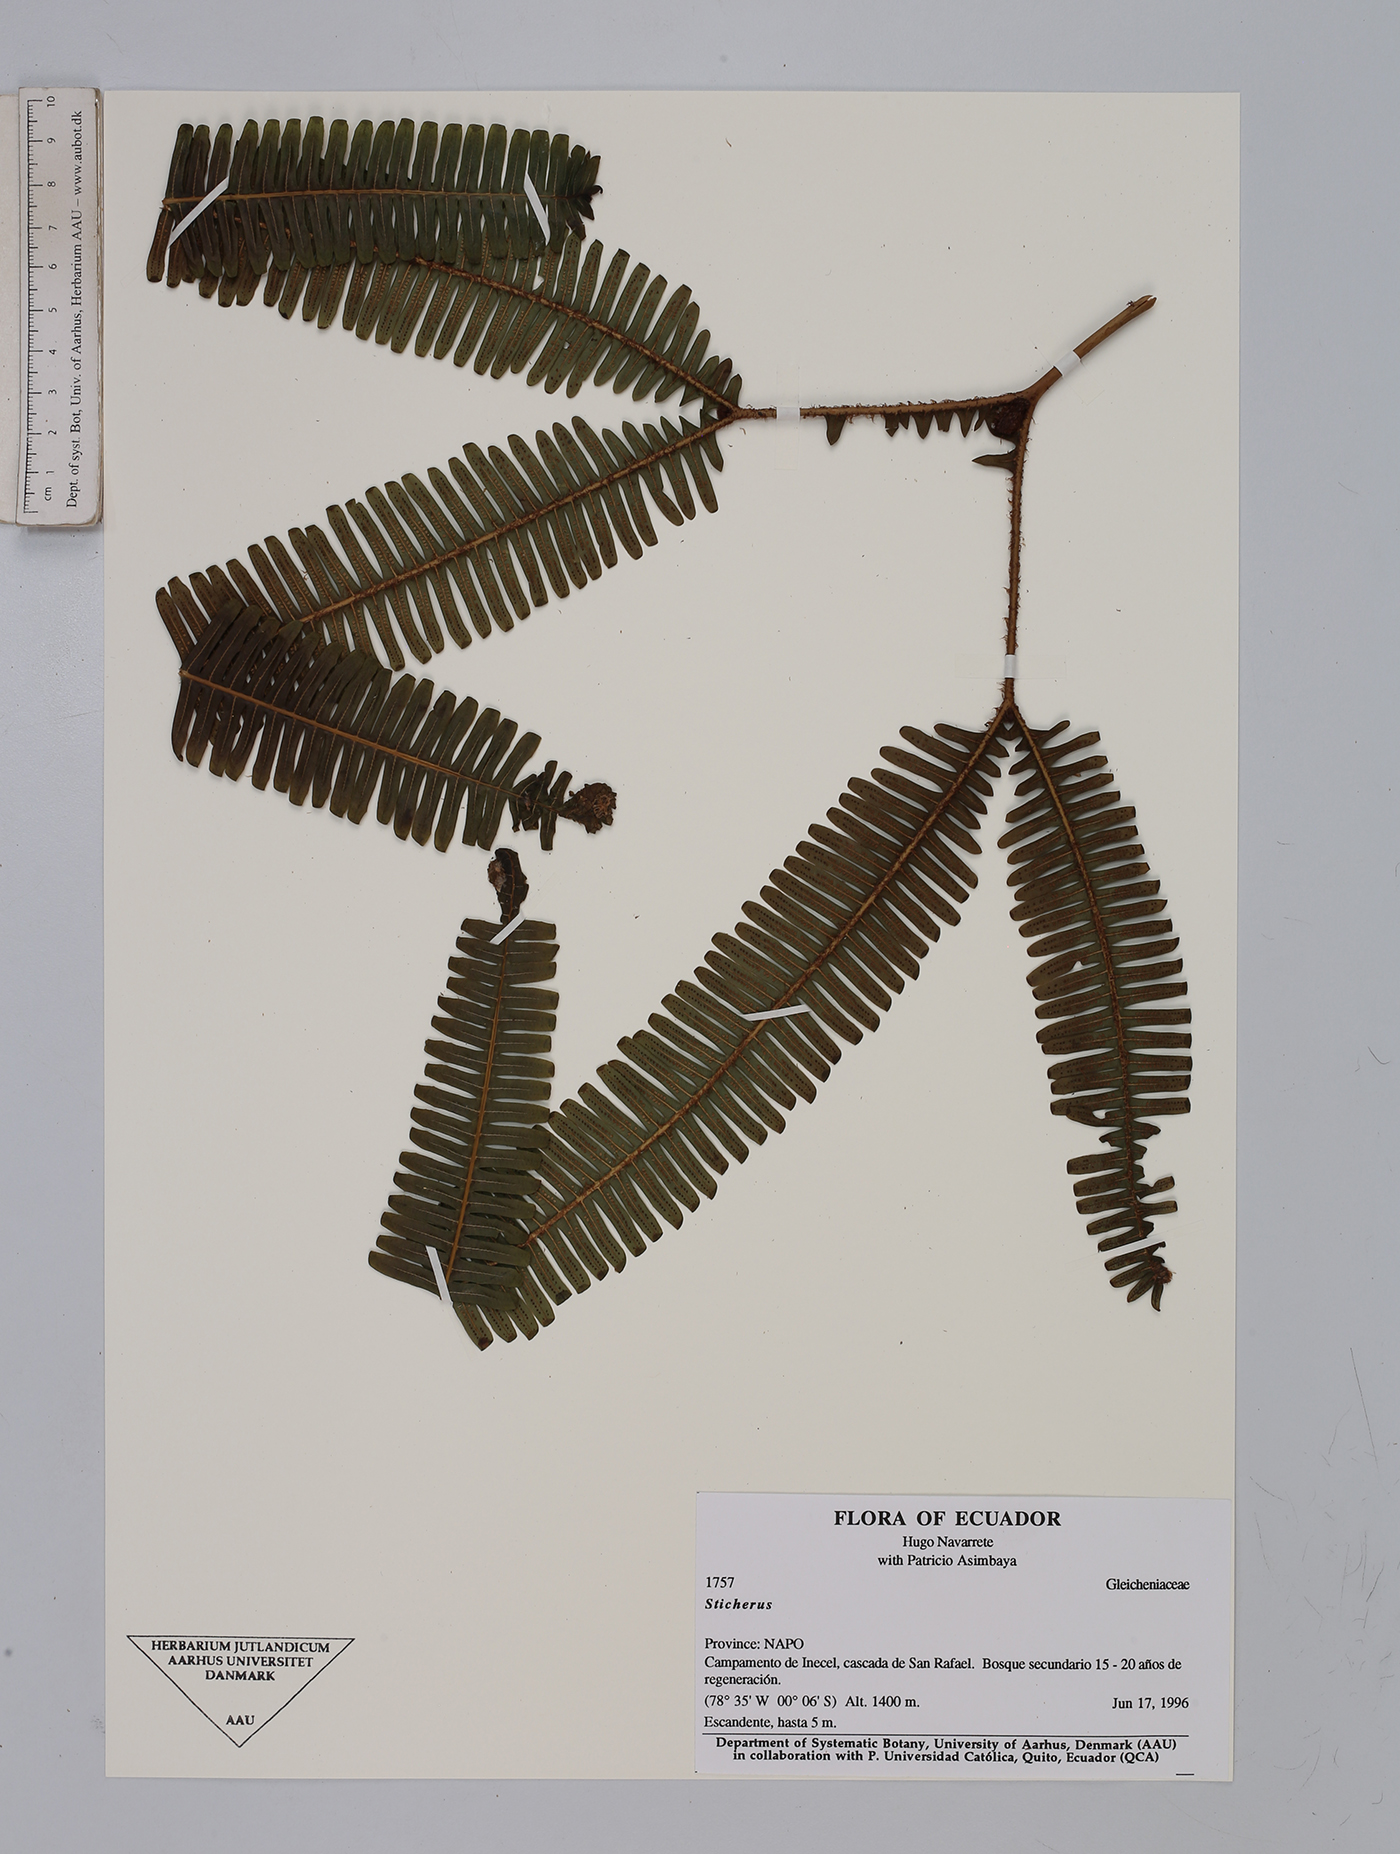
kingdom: Plantae
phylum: Tracheophyta
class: Polypodiopsida
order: Gleicheniales
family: Gleicheniaceae
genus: Sticherus
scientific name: Sticherus
